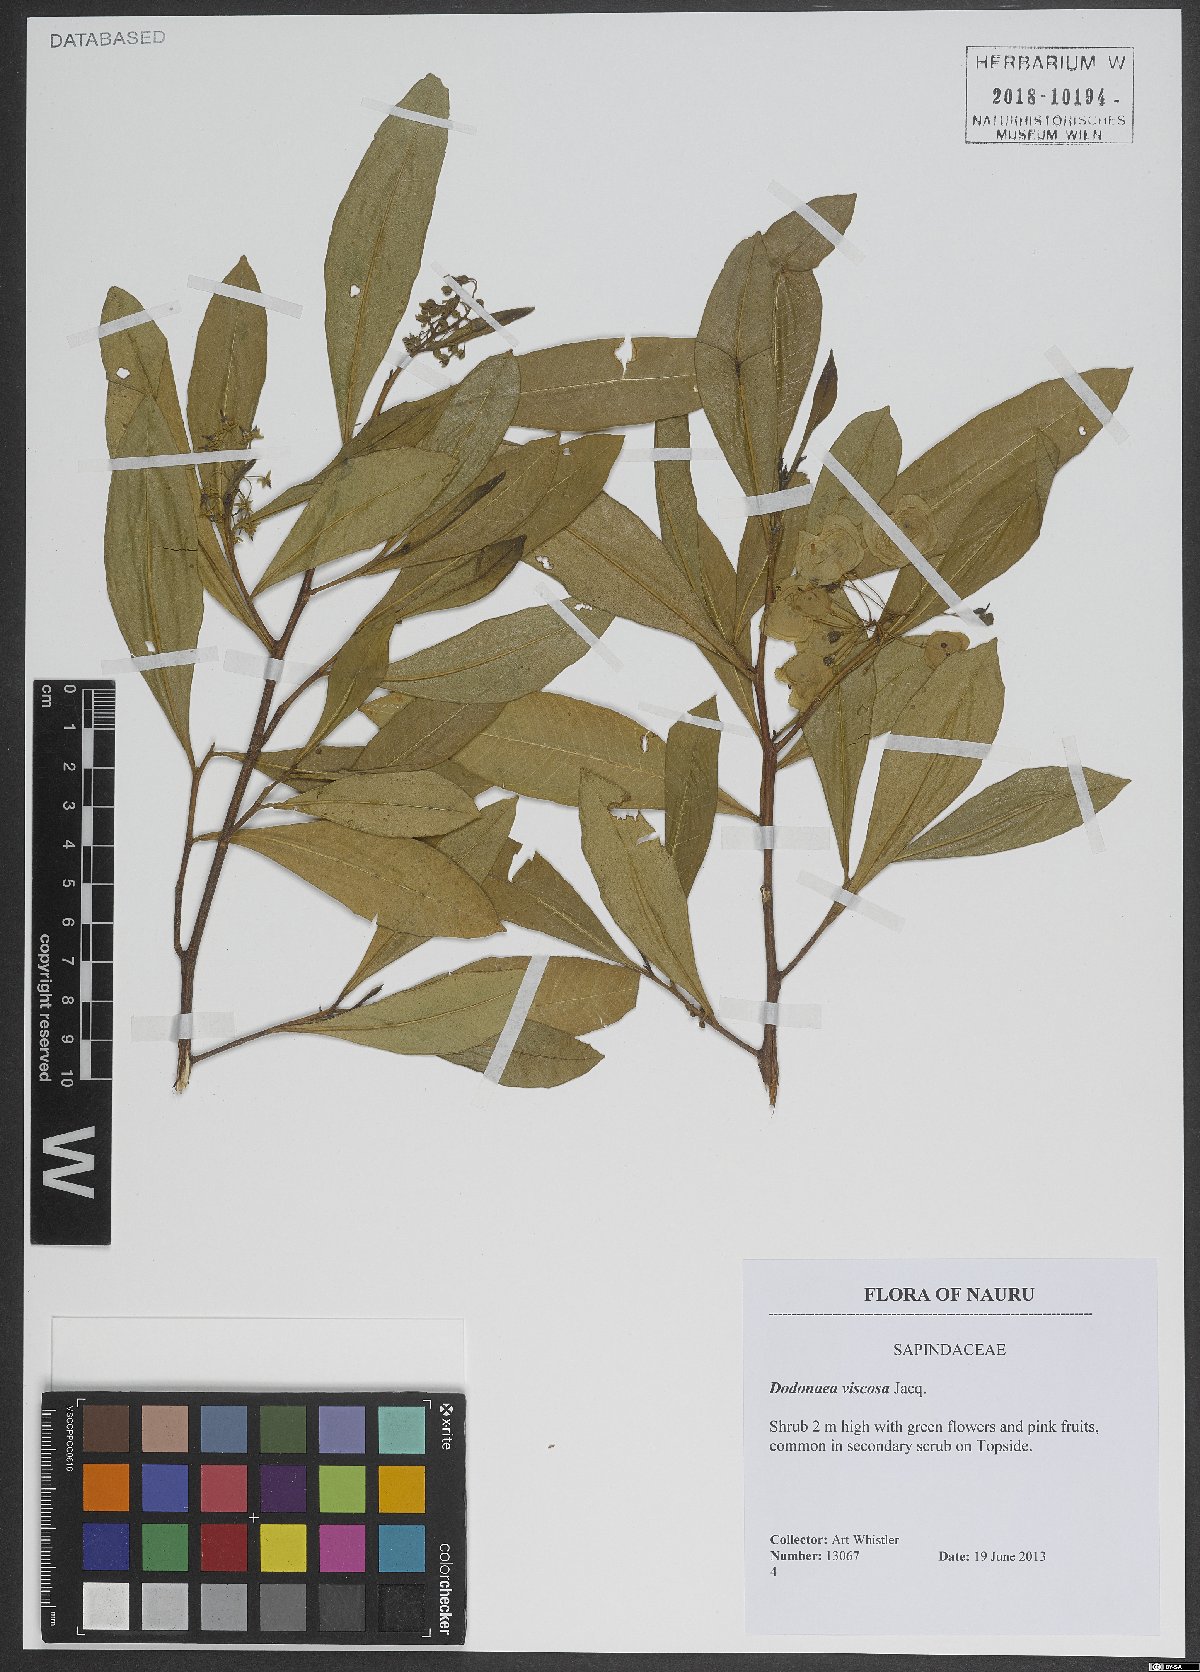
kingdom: Plantae
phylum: Tracheophyta
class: Magnoliopsida
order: Sapindales
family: Sapindaceae
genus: Dodonaea
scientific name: Dodonaea viscosa
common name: Hopbush
